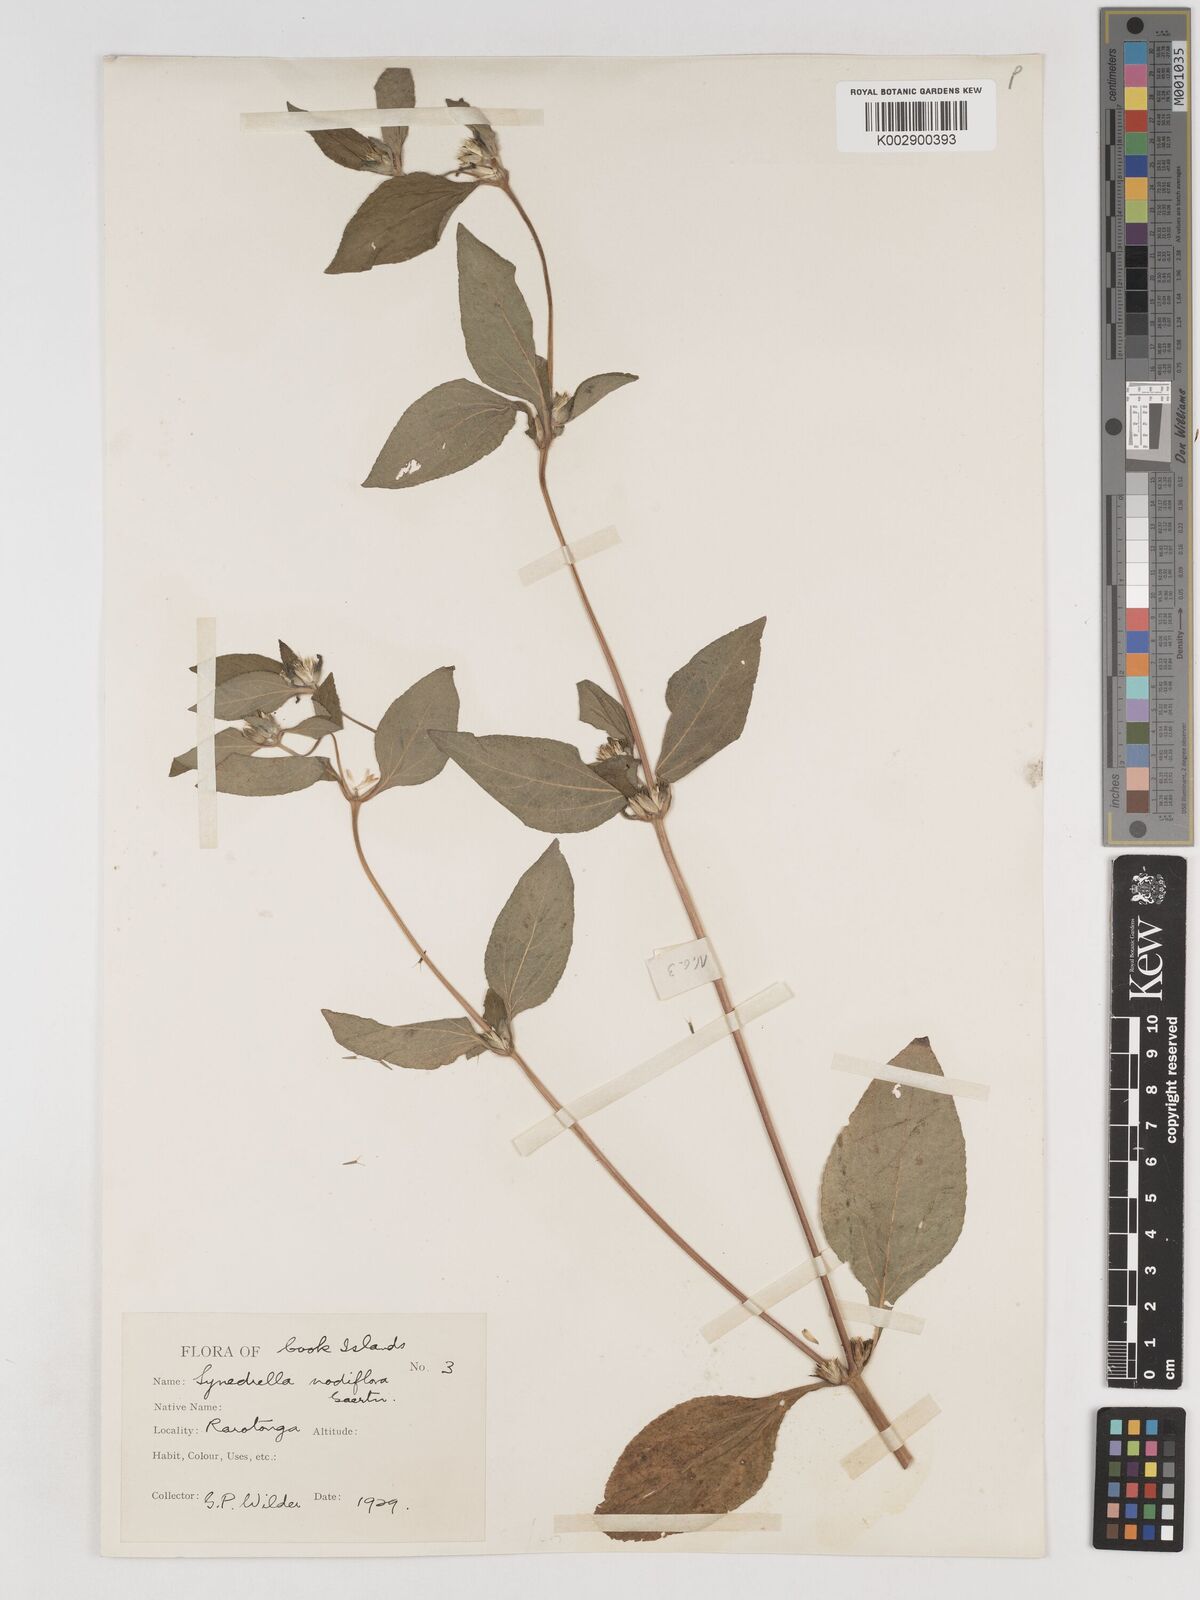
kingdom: Plantae
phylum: Tracheophyta
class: Magnoliopsida
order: Asterales
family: Asteraceae
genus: Synedrella
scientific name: Synedrella nodiflora
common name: Nodeweed
